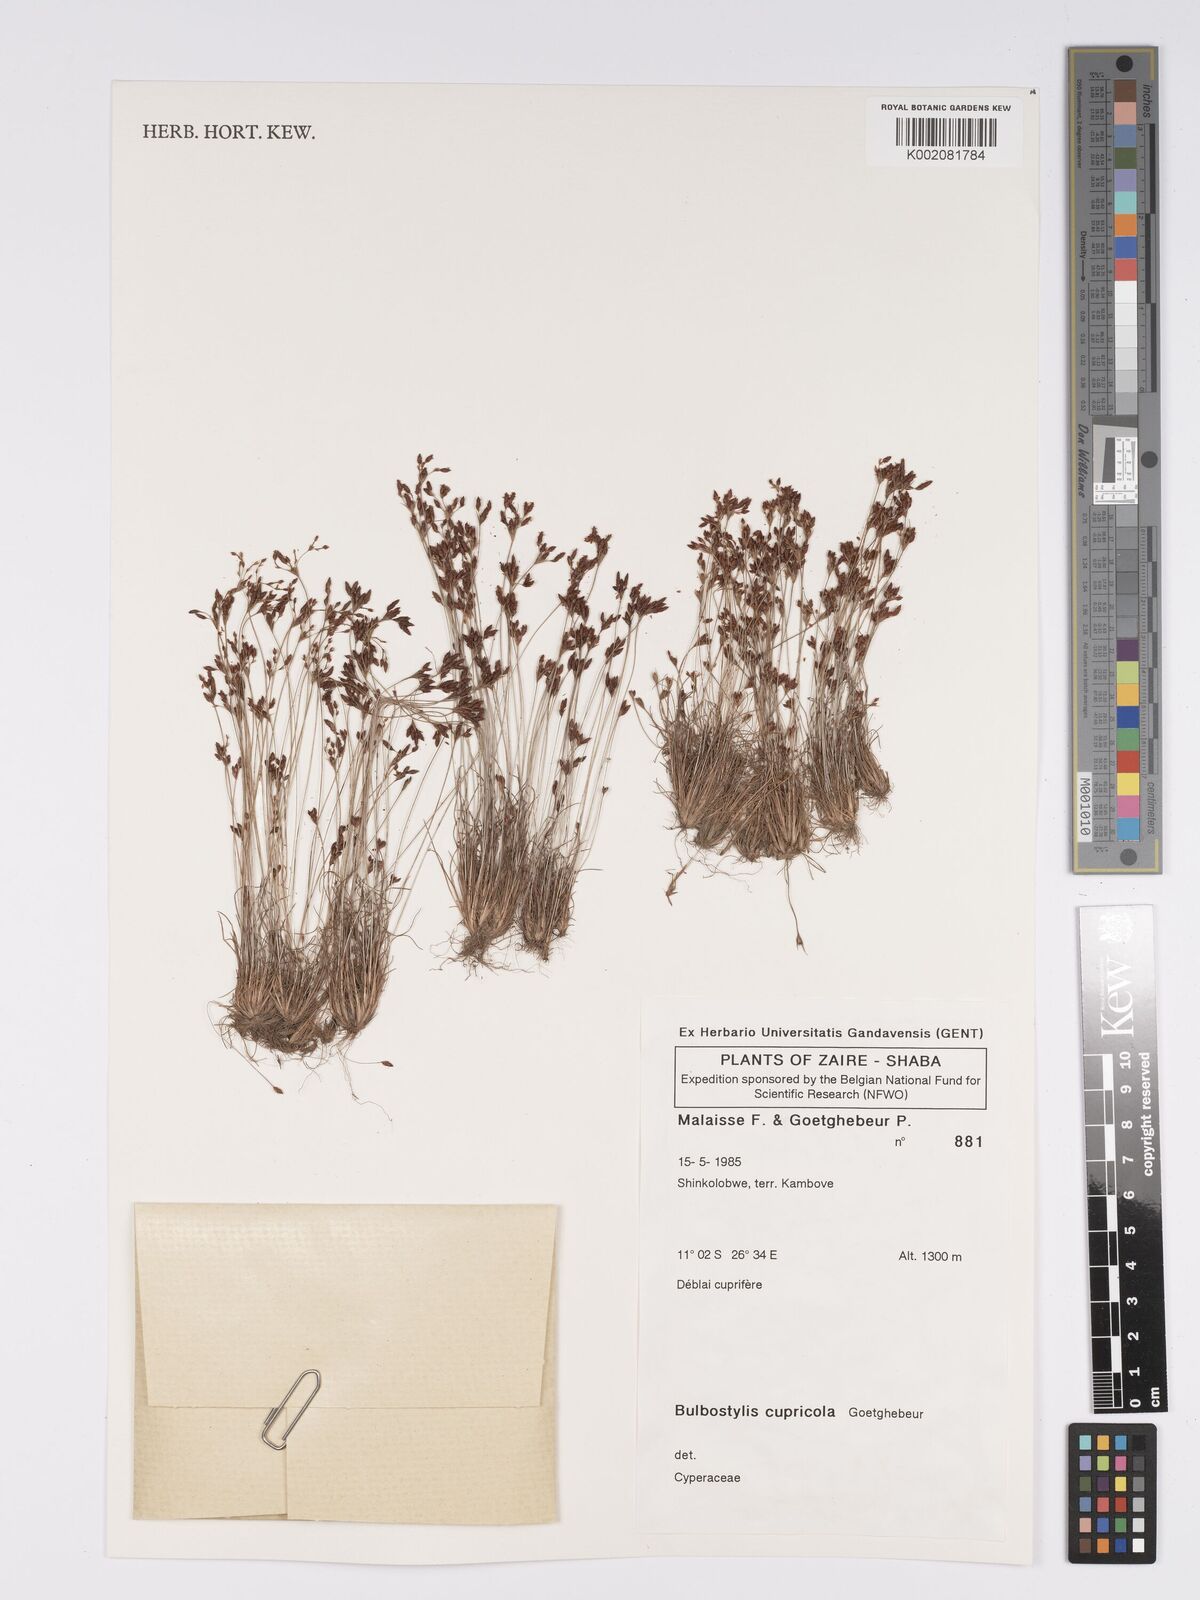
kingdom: Plantae
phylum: Tracheophyta
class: Liliopsida
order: Poales
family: Cyperaceae
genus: Bulbostylis
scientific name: Bulbostylis cupricola
